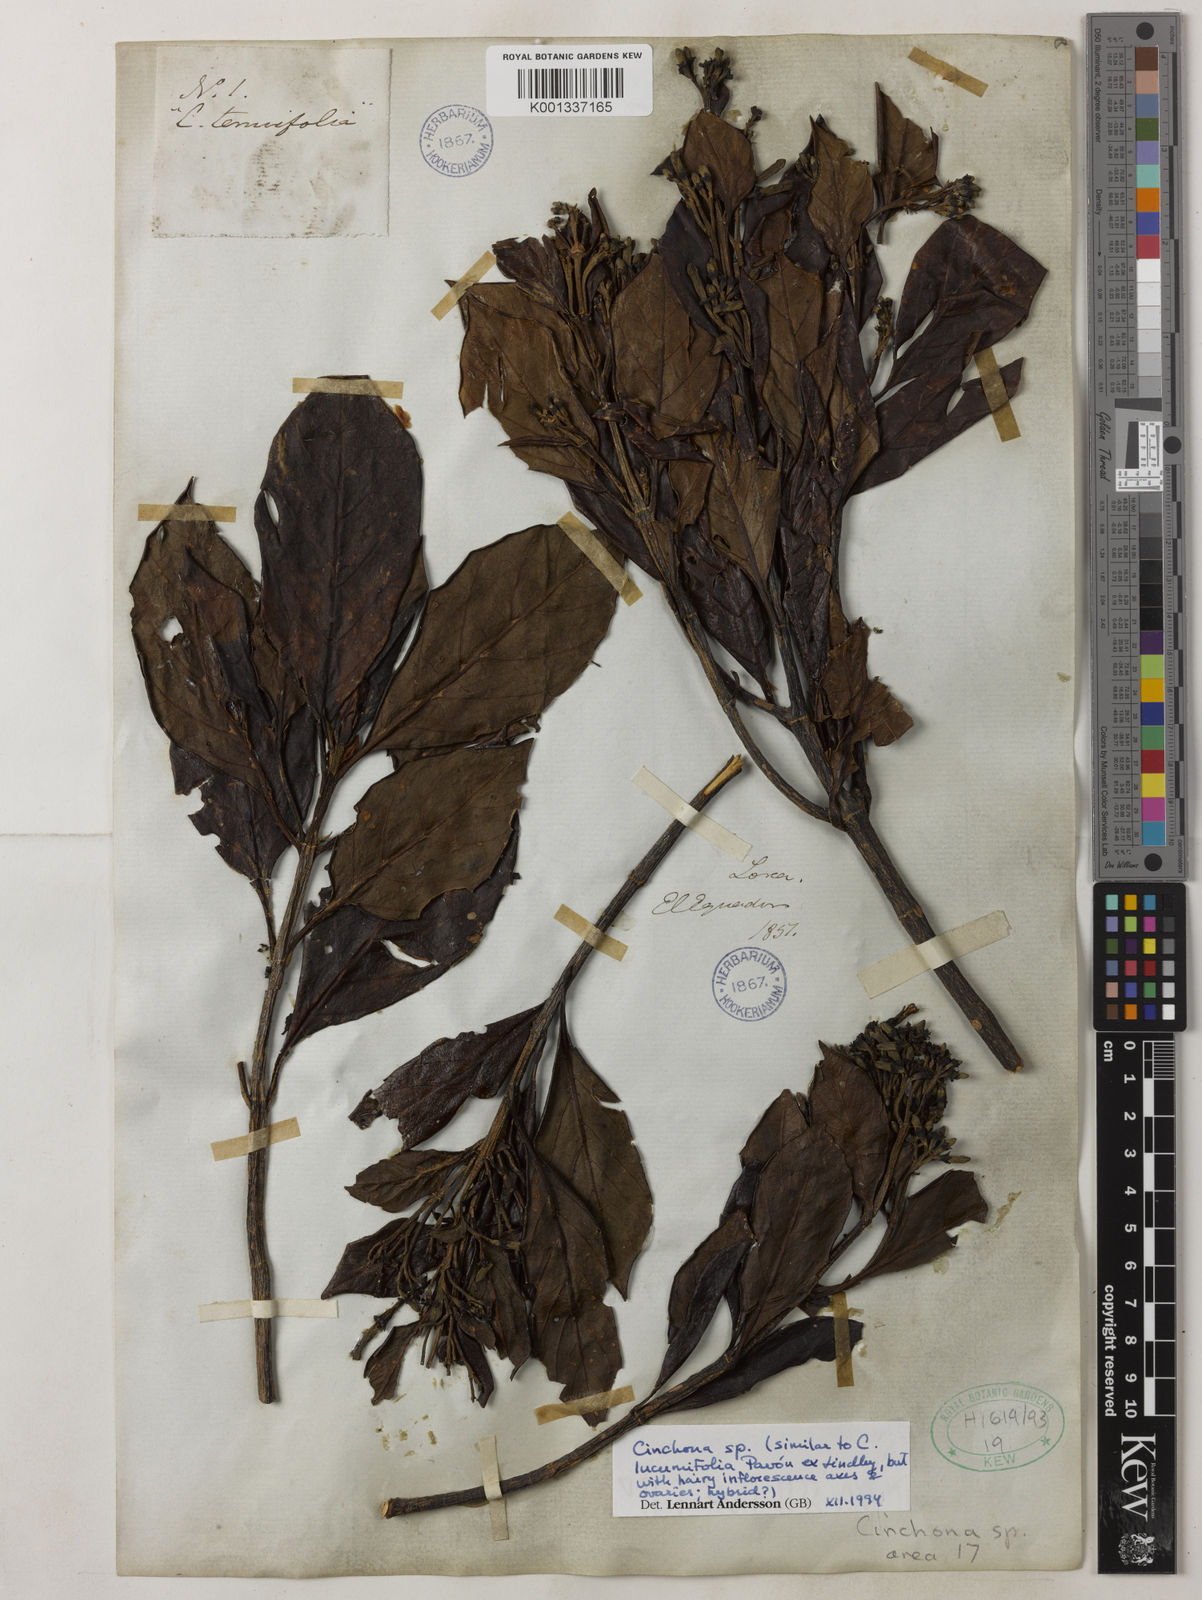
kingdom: Plantae
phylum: Tracheophyta
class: Magnoliopsida
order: Gentianales
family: Rubiaceae
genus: Cinchona
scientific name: Cinchona lucumifolia
